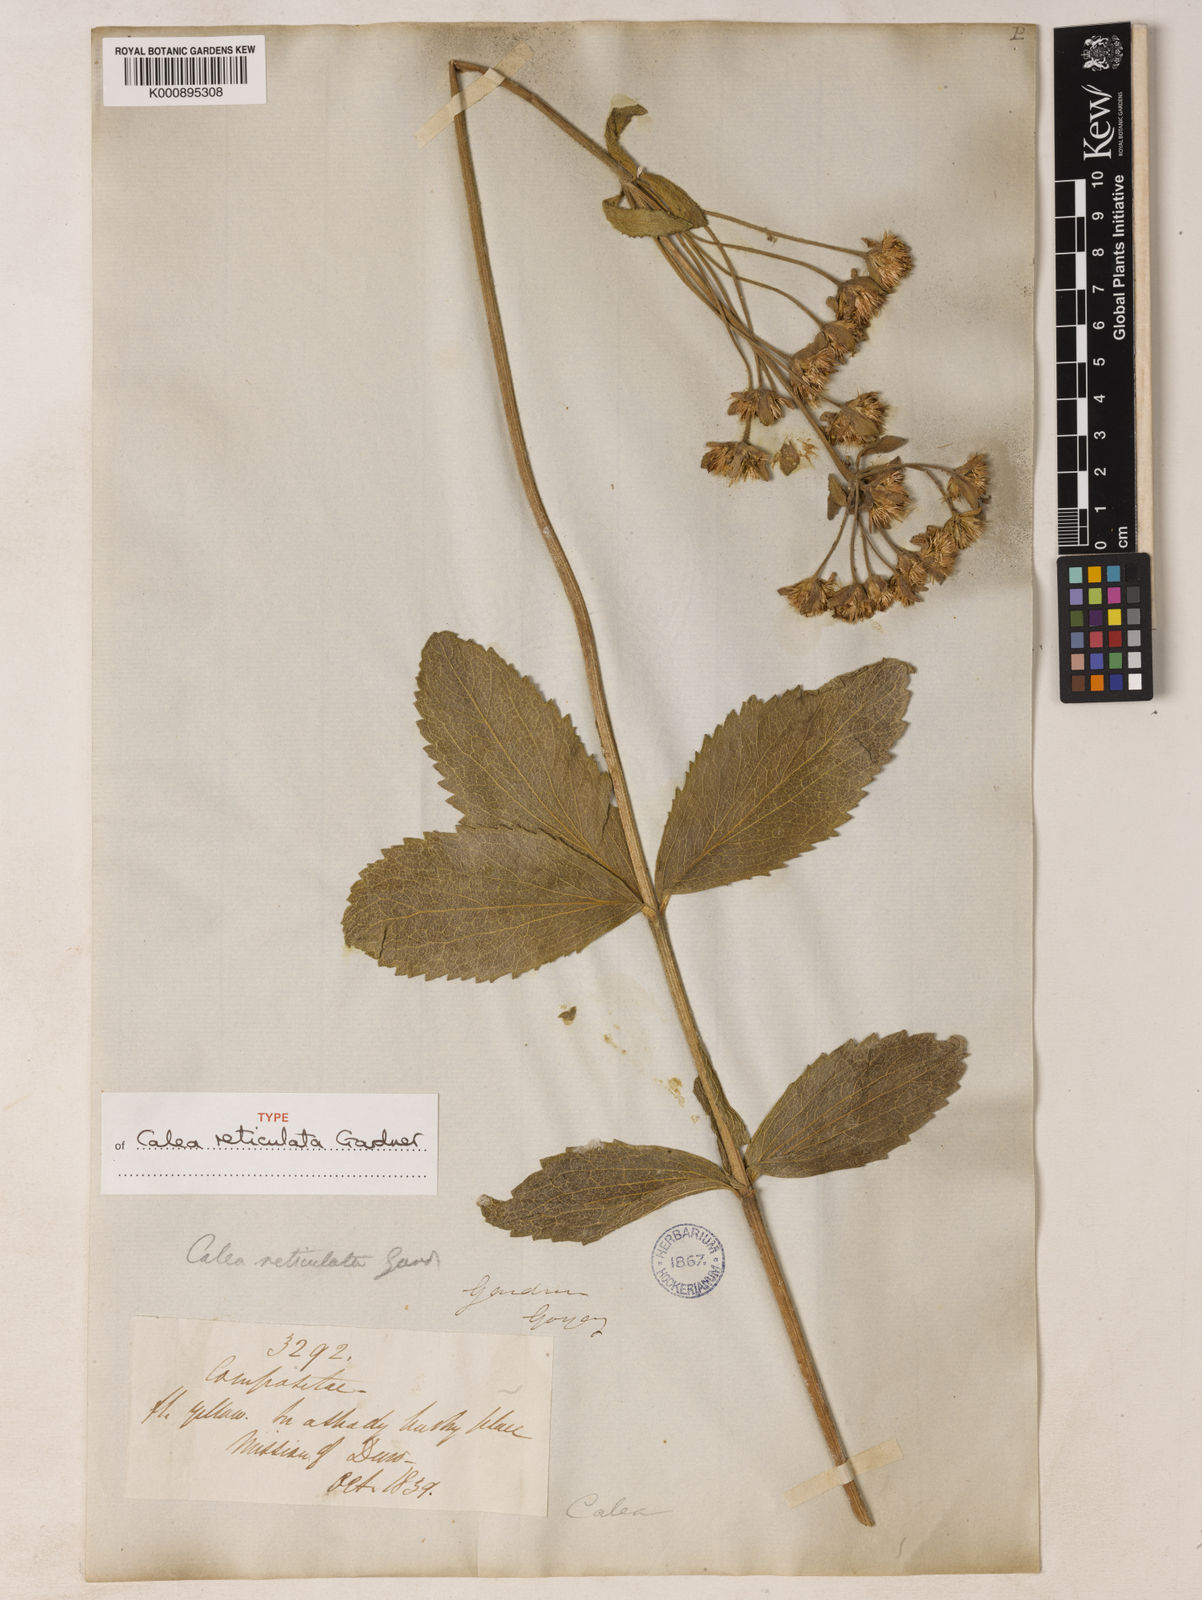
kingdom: Plantae
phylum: Tracheophyta
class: Magnoliopsida
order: Asterales
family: Asteraceae
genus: Calea
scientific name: Calea reticulata
